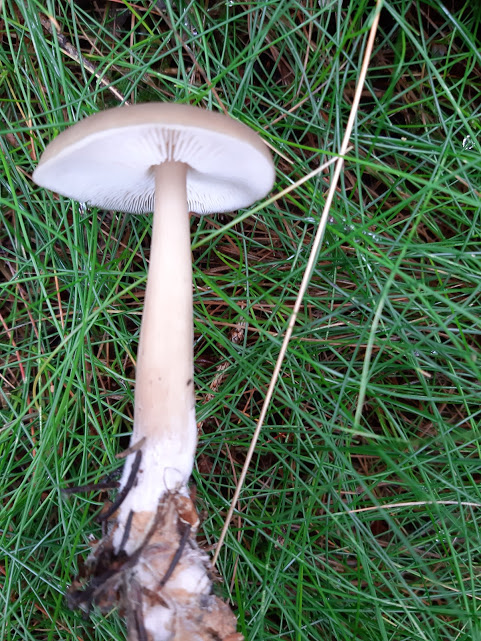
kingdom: Fungi
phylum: Basidiomycota
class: Agaricomycetes
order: Agaricales
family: Omphalotaceae
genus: Rhodocollybia
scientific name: Rhodocollybia asema
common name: horngrå fladhat
